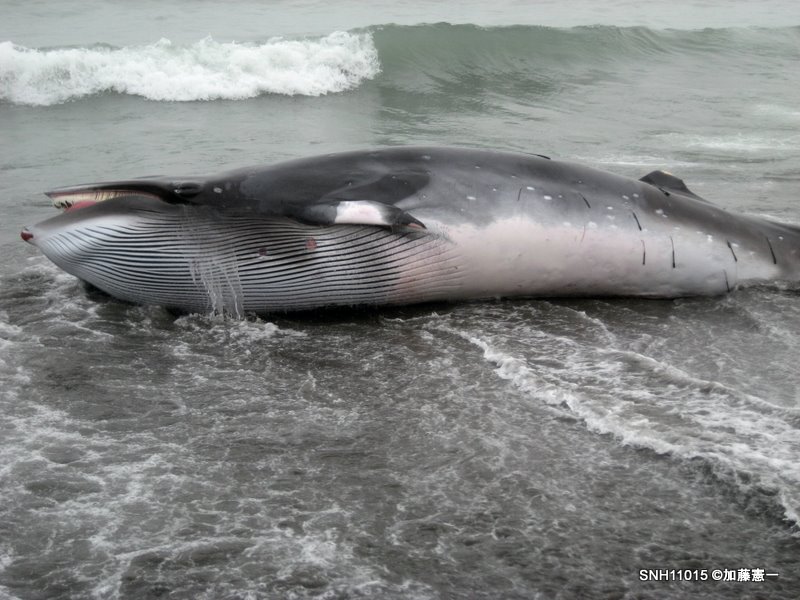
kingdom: Animalia
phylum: Chordata
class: Mammalia
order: Cetacea
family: Balaenopteridae
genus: Balaenoptera
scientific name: Balaenoptera acutorostrata
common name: Minke whale
